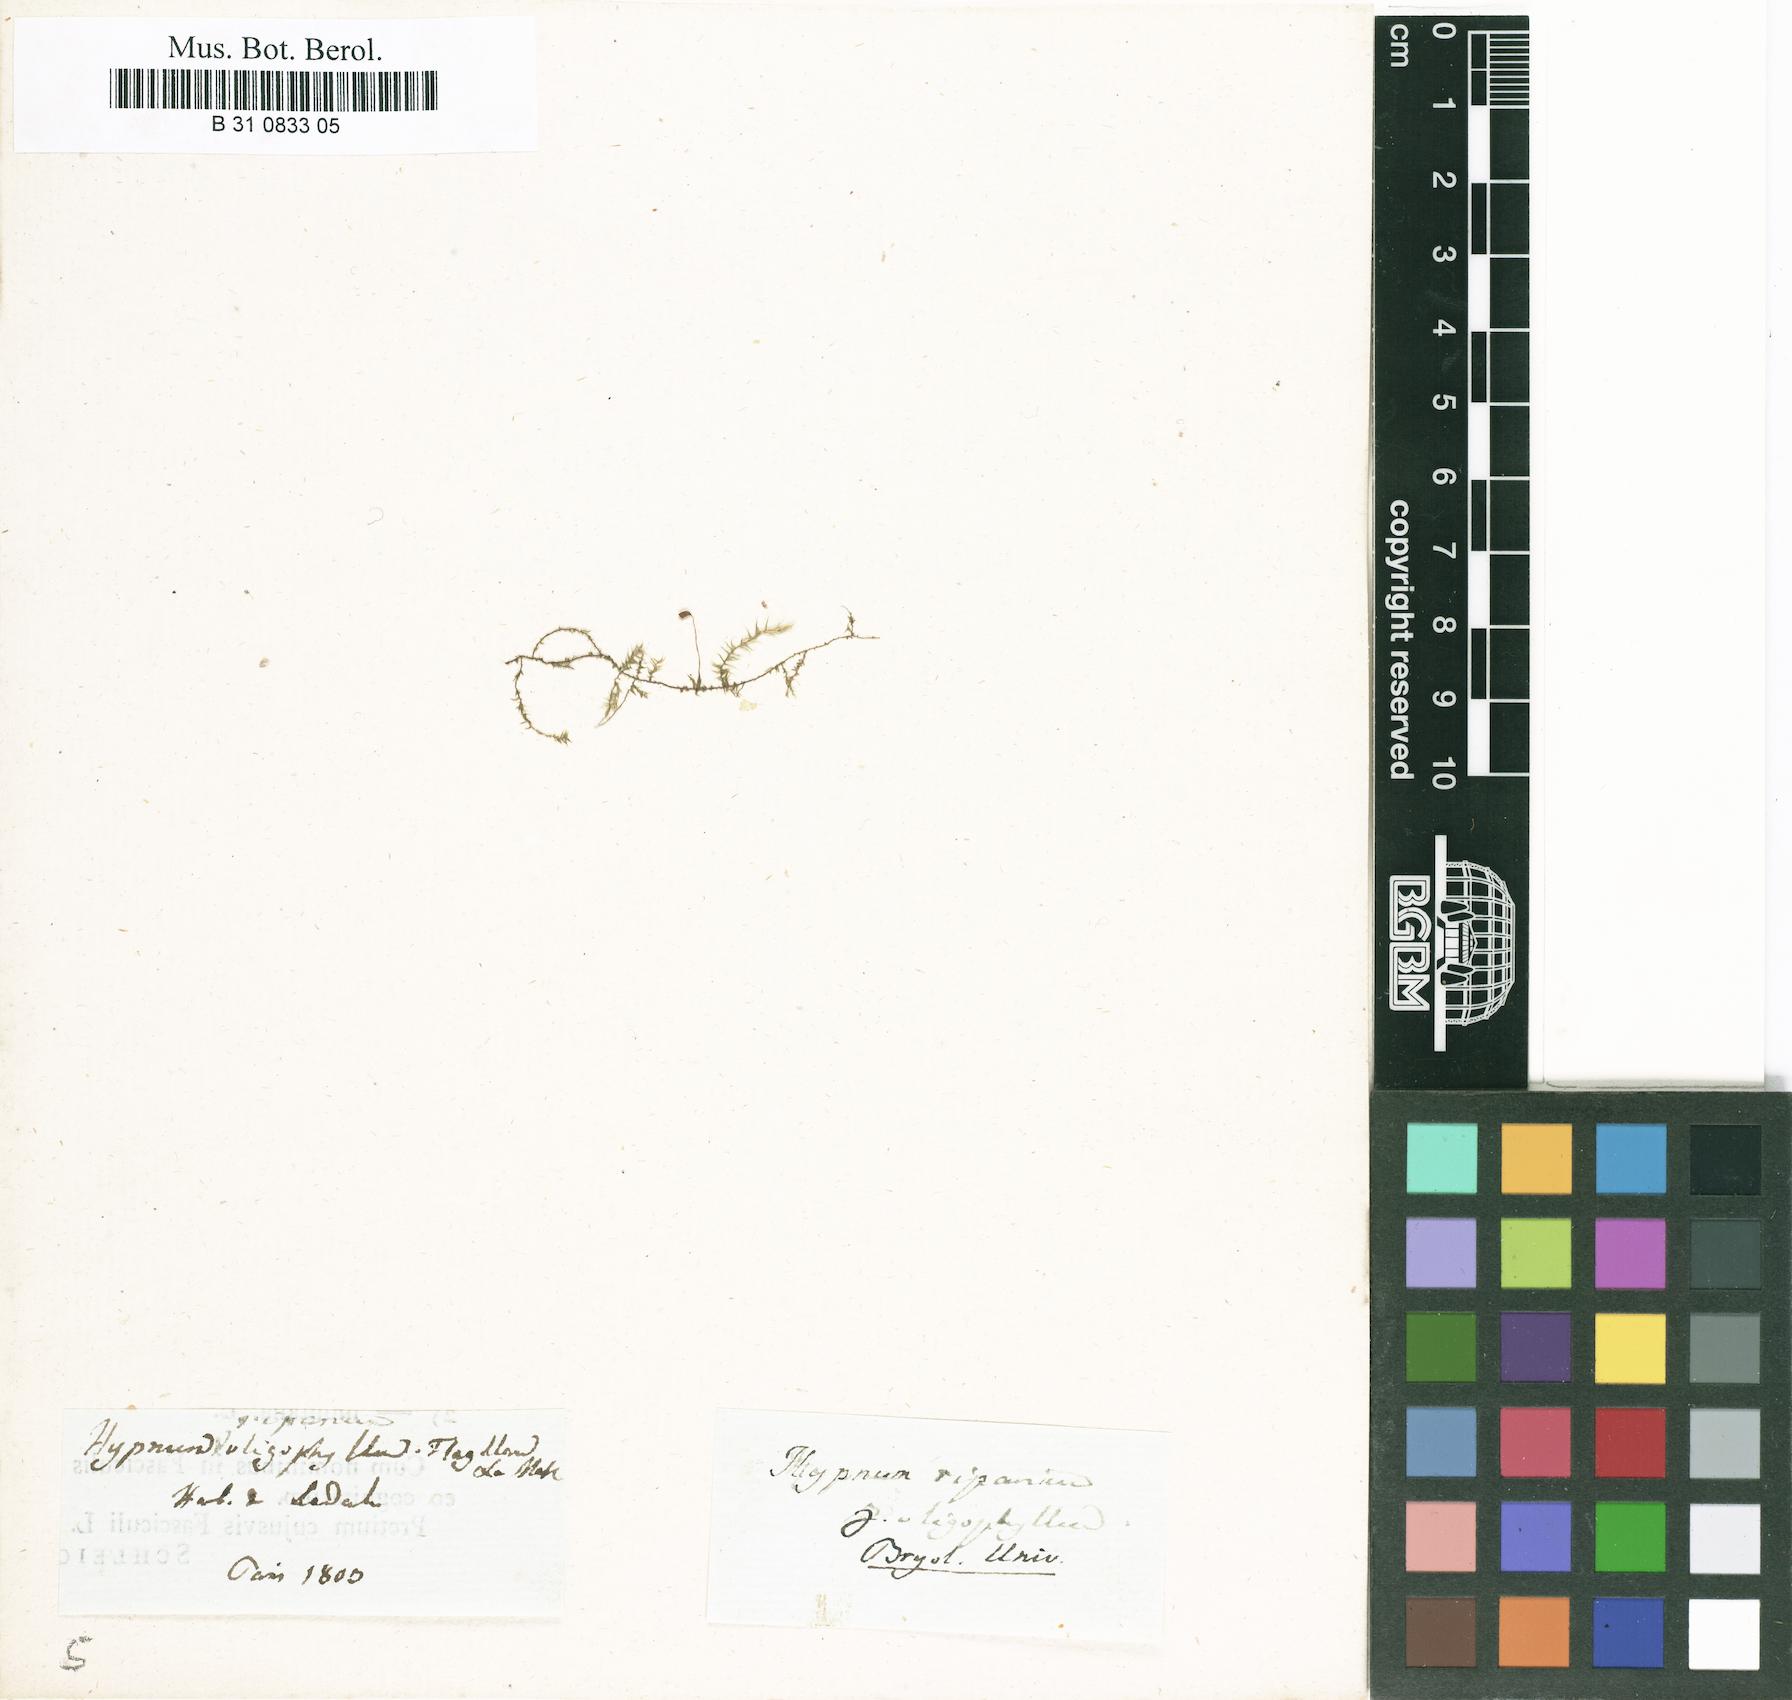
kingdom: Plantae
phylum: Bryophyta
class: Bryopsida
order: Hypnales
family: Amblystegiaceae
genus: Leptodictyum
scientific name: Leptodictyum riparium
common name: Riparian feather moss
